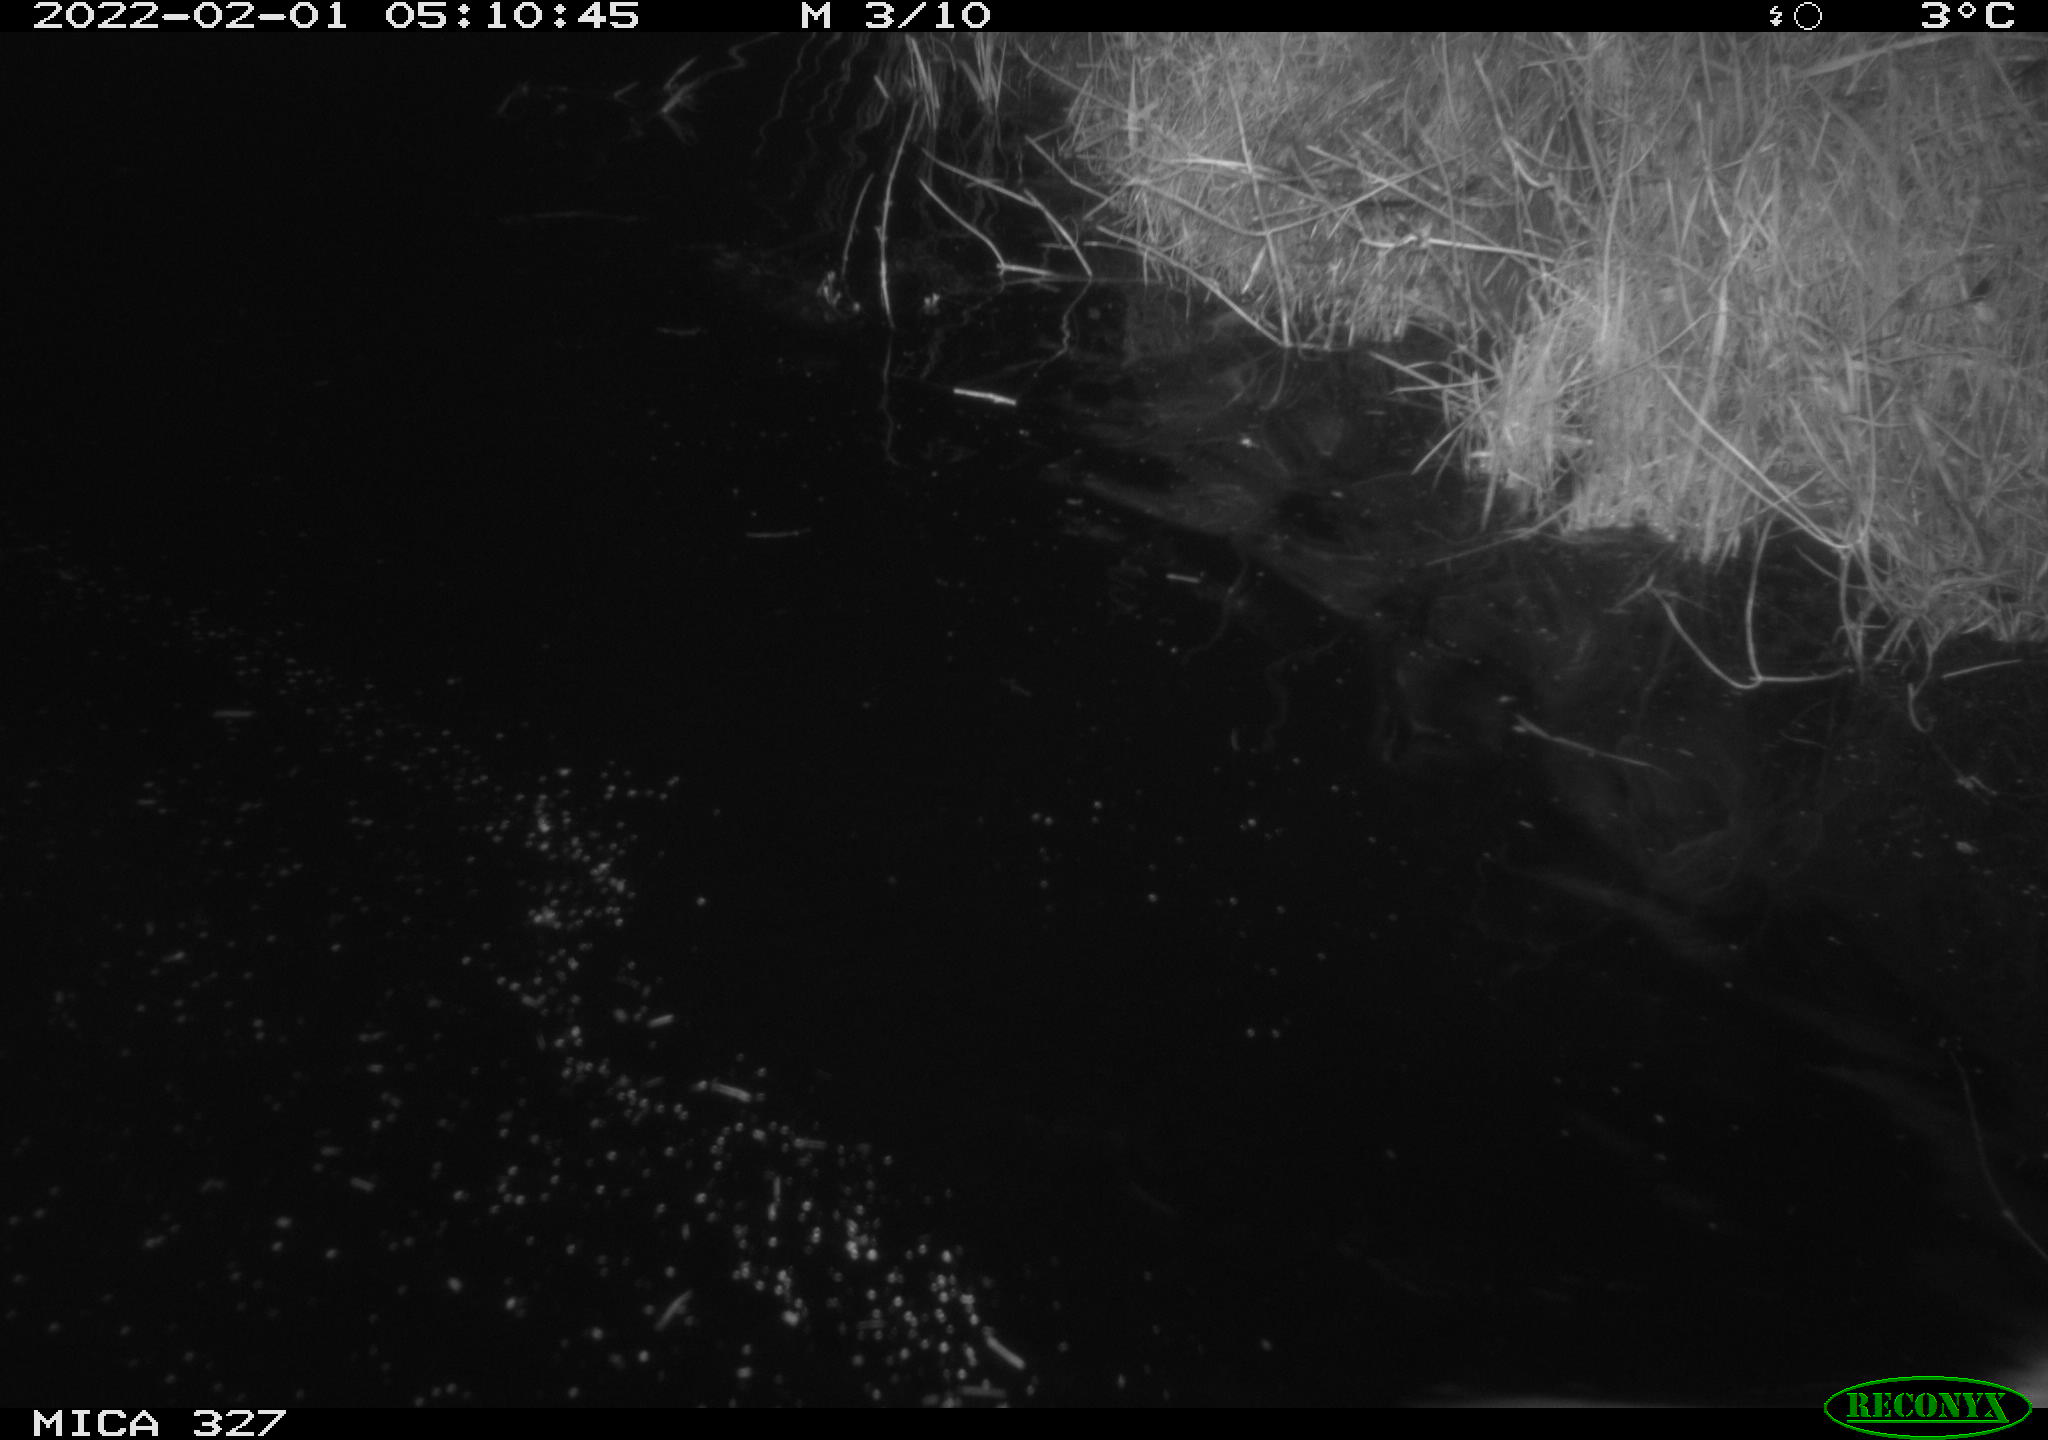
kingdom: Animalia
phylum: Chordata
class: Mammalia
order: Rodentia
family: Cricetidae
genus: Ondatra
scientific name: Ondatra zibethicus
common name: Muskrat
